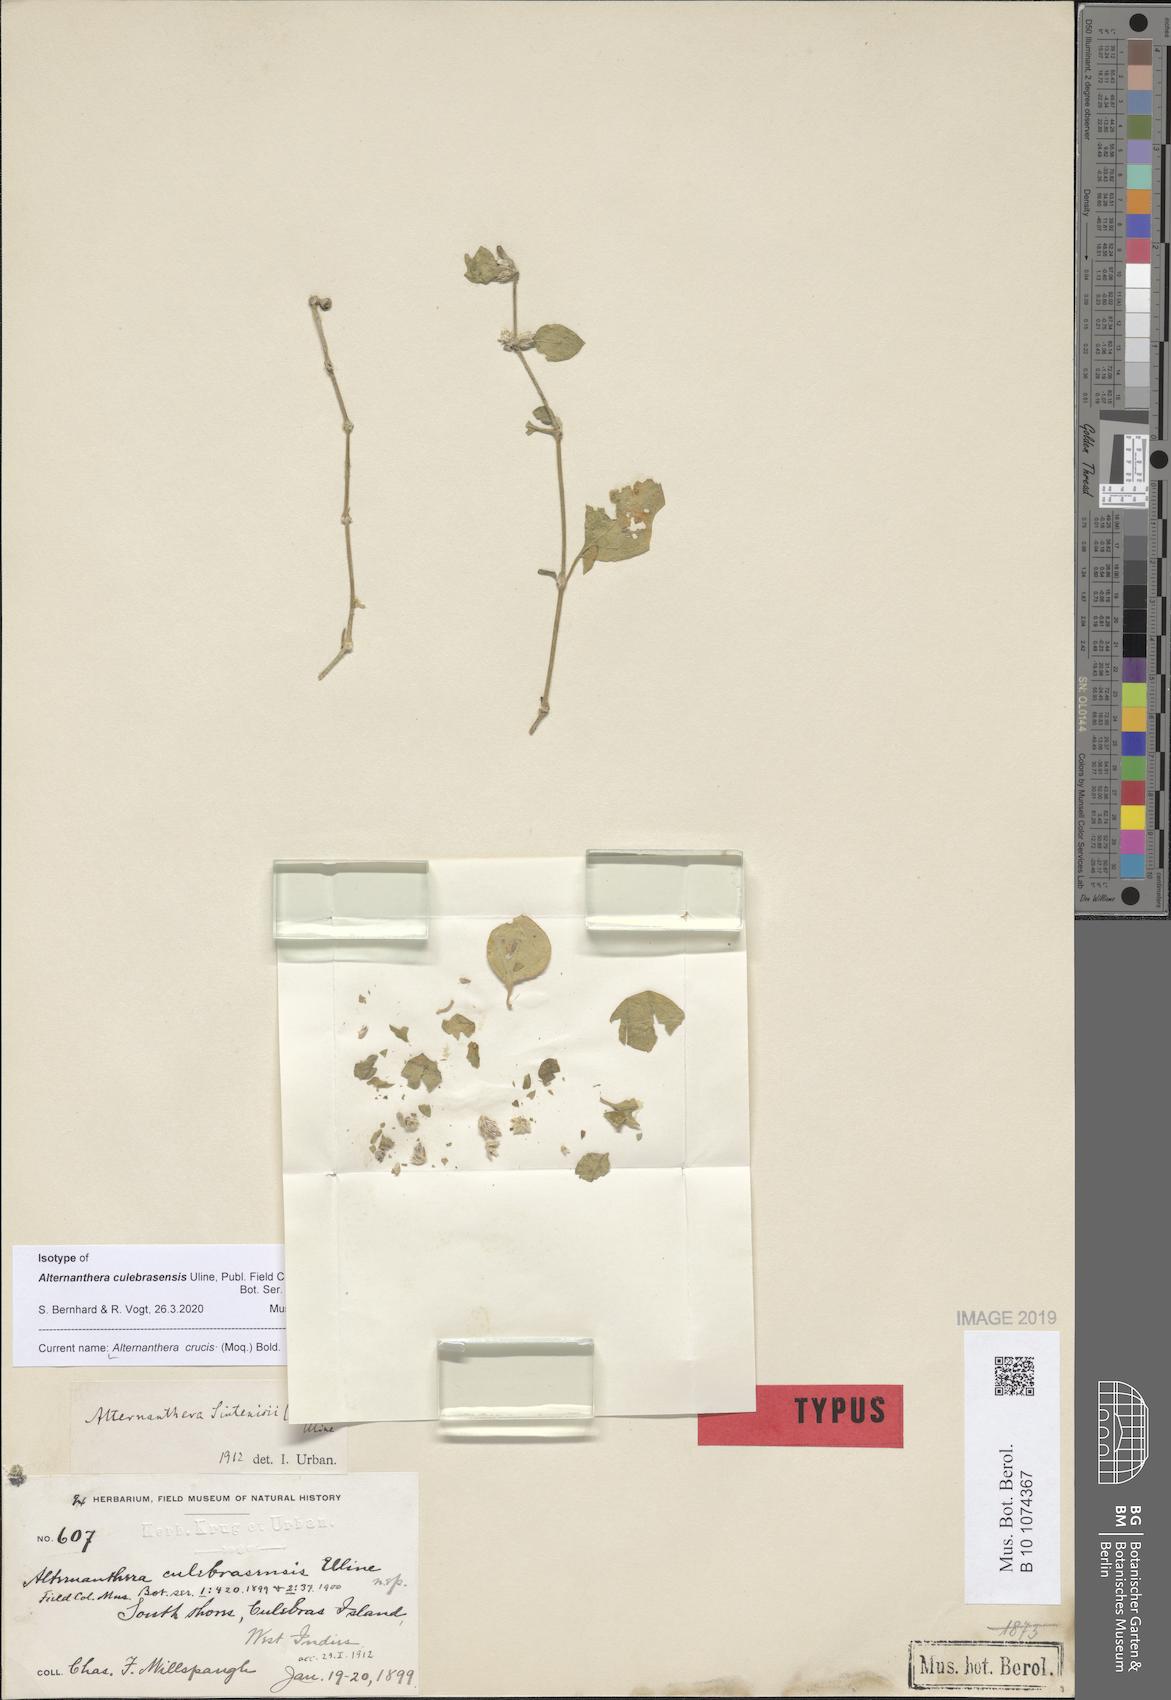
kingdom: Plantae
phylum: Tracheophyta
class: Magnoliopsida
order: Caryophyllales
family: Amaranthaceae
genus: Alternanthera
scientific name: Alternanthera crucis
